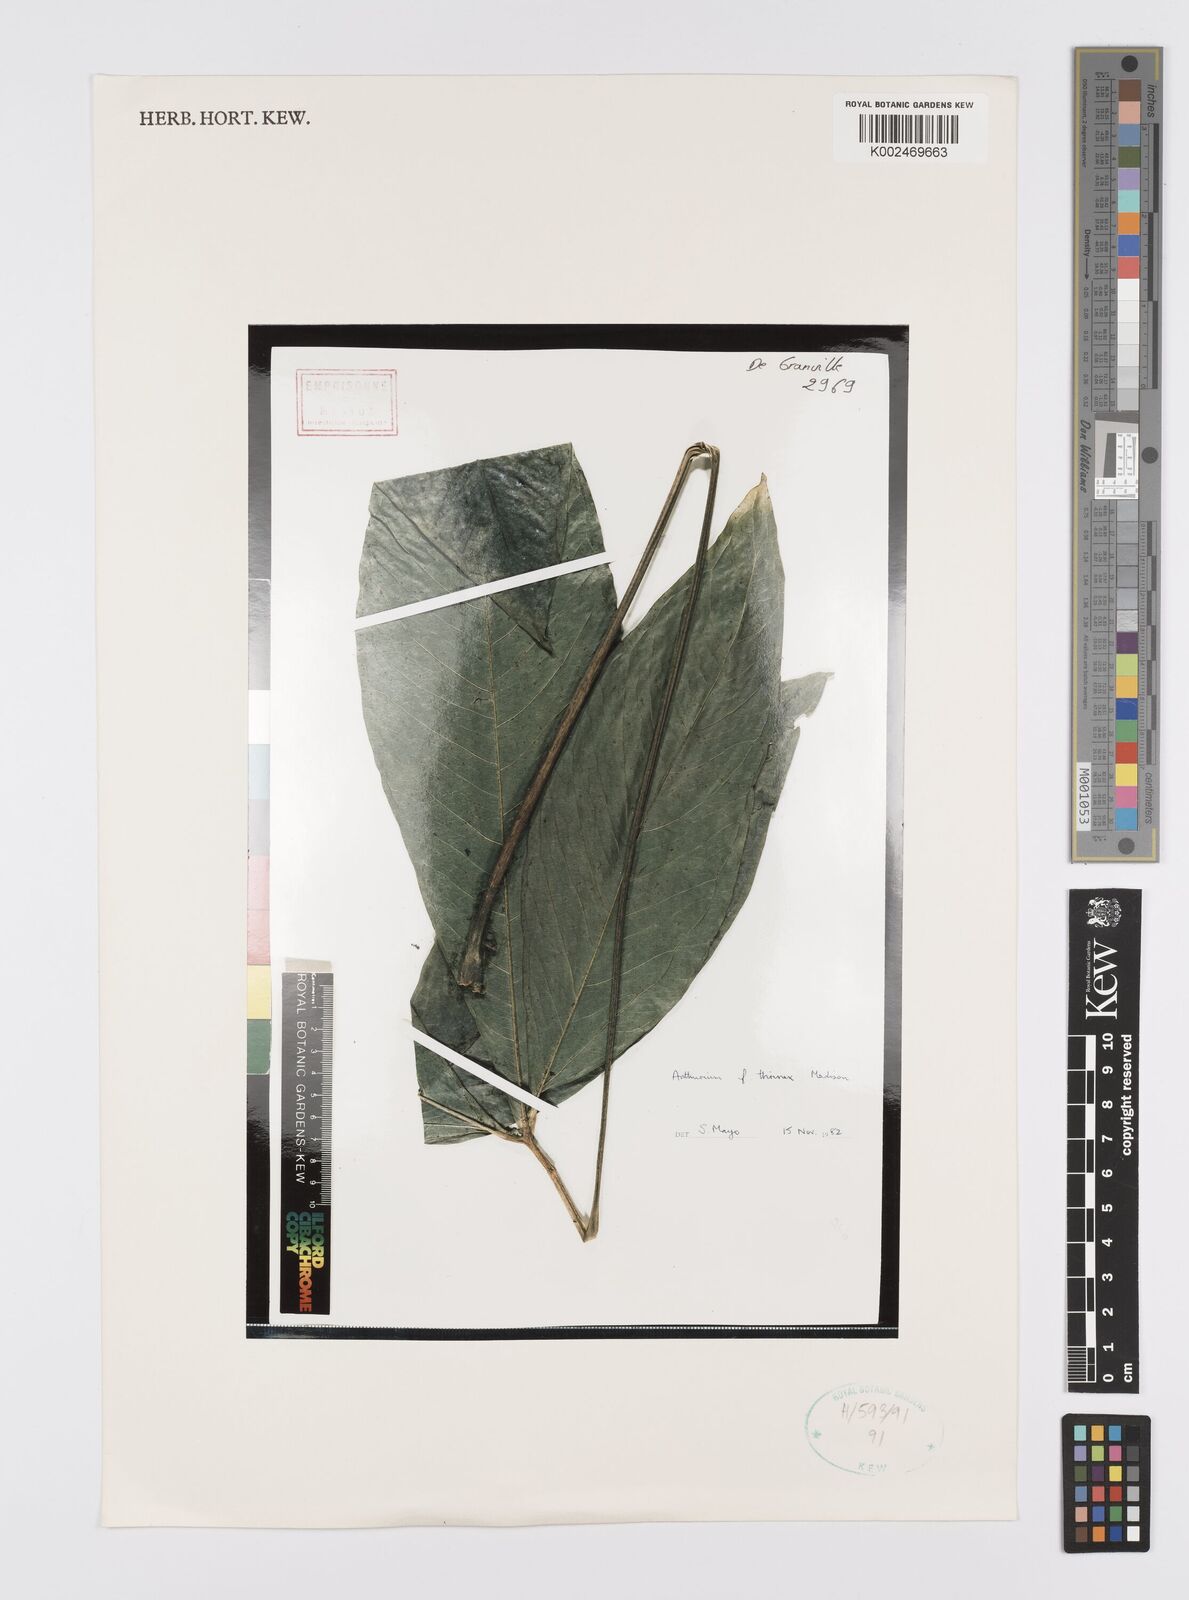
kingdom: Plantae
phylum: Tracheophyta
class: Liliopsida
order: Alismatales
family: Araceae
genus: Anthurium
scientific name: Anthurium thrinax
